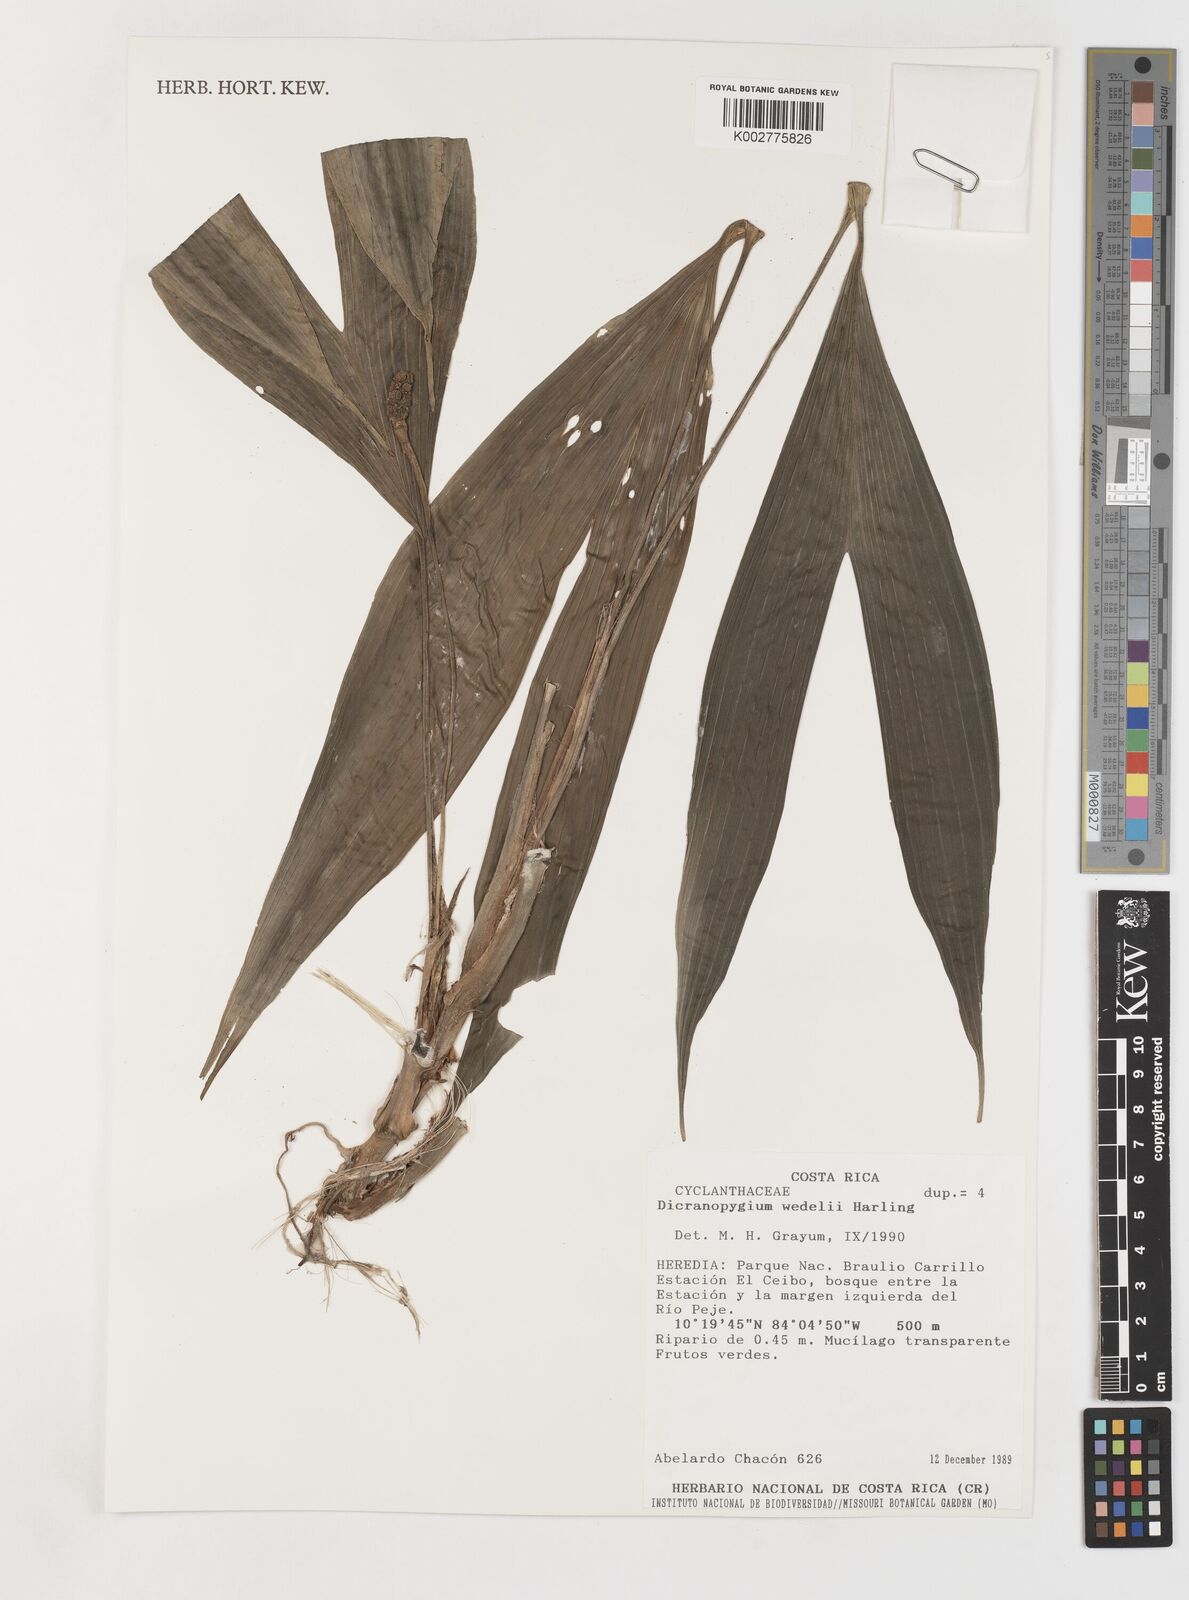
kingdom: Plantae
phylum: Tracheophyta
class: Liliopsida
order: Pandanales
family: Cyclanthaceae
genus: Dicranopygium
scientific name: Dicranopygium wedelii
